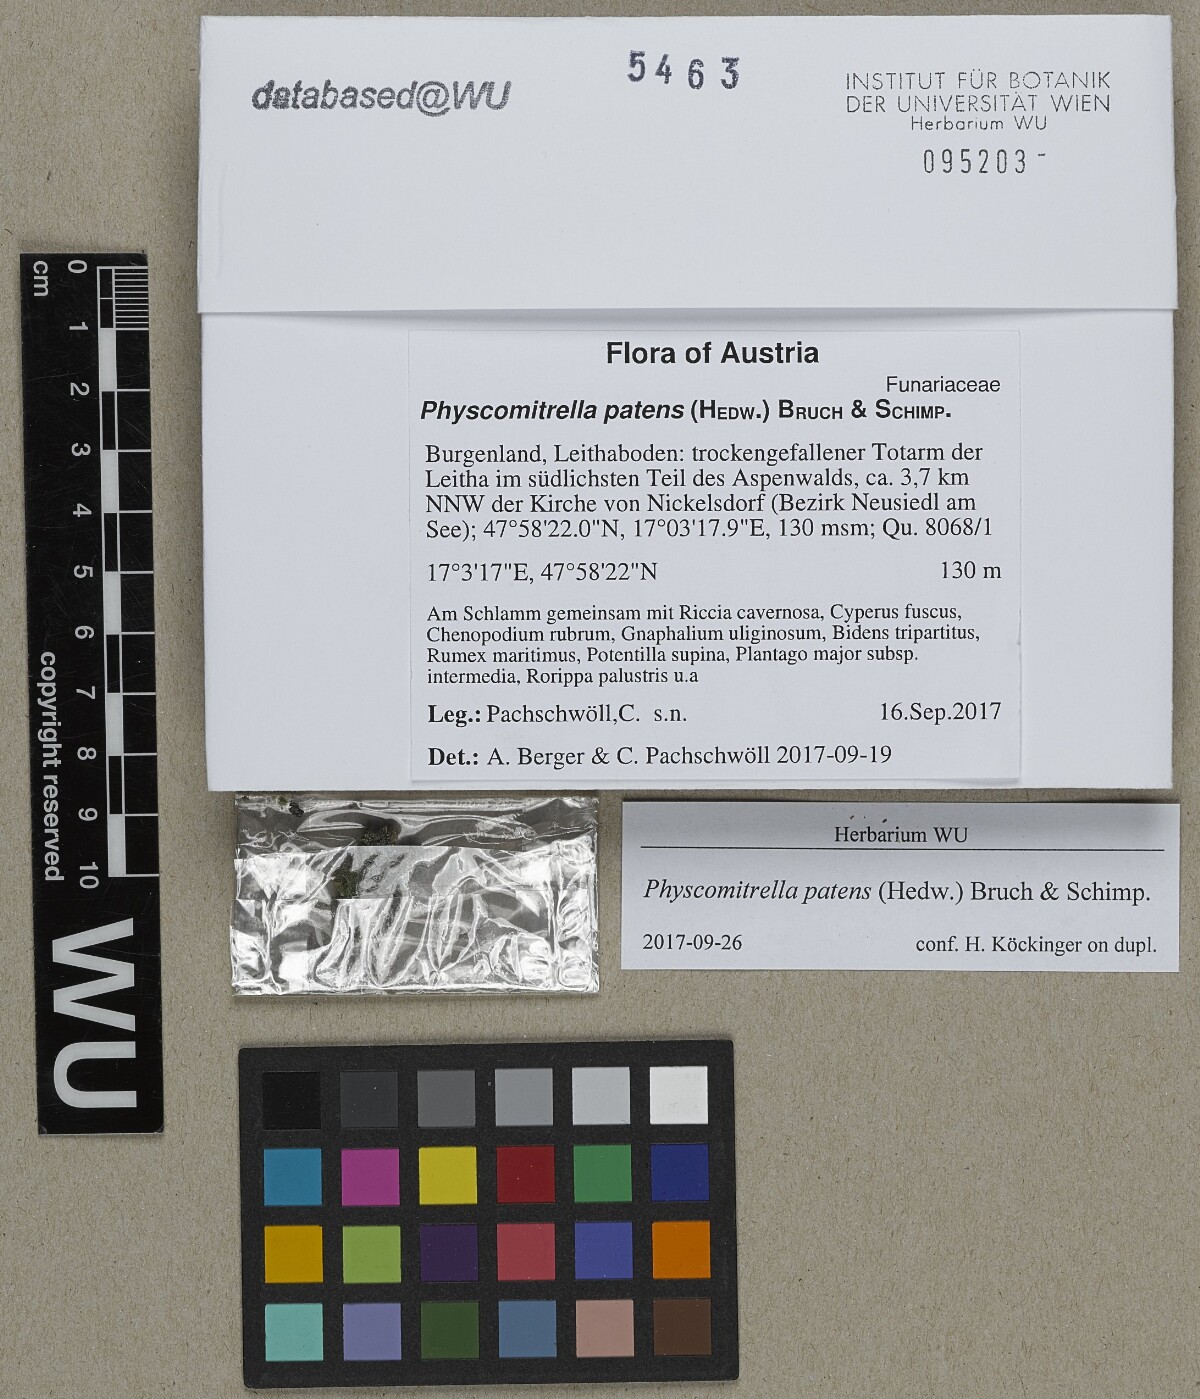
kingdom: Plantae
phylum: Bryophyta
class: Bryopsida
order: Funariales
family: Funariaceae
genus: Physcomitrium
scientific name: Physcomitrium patens
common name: Spreading earth-moss
